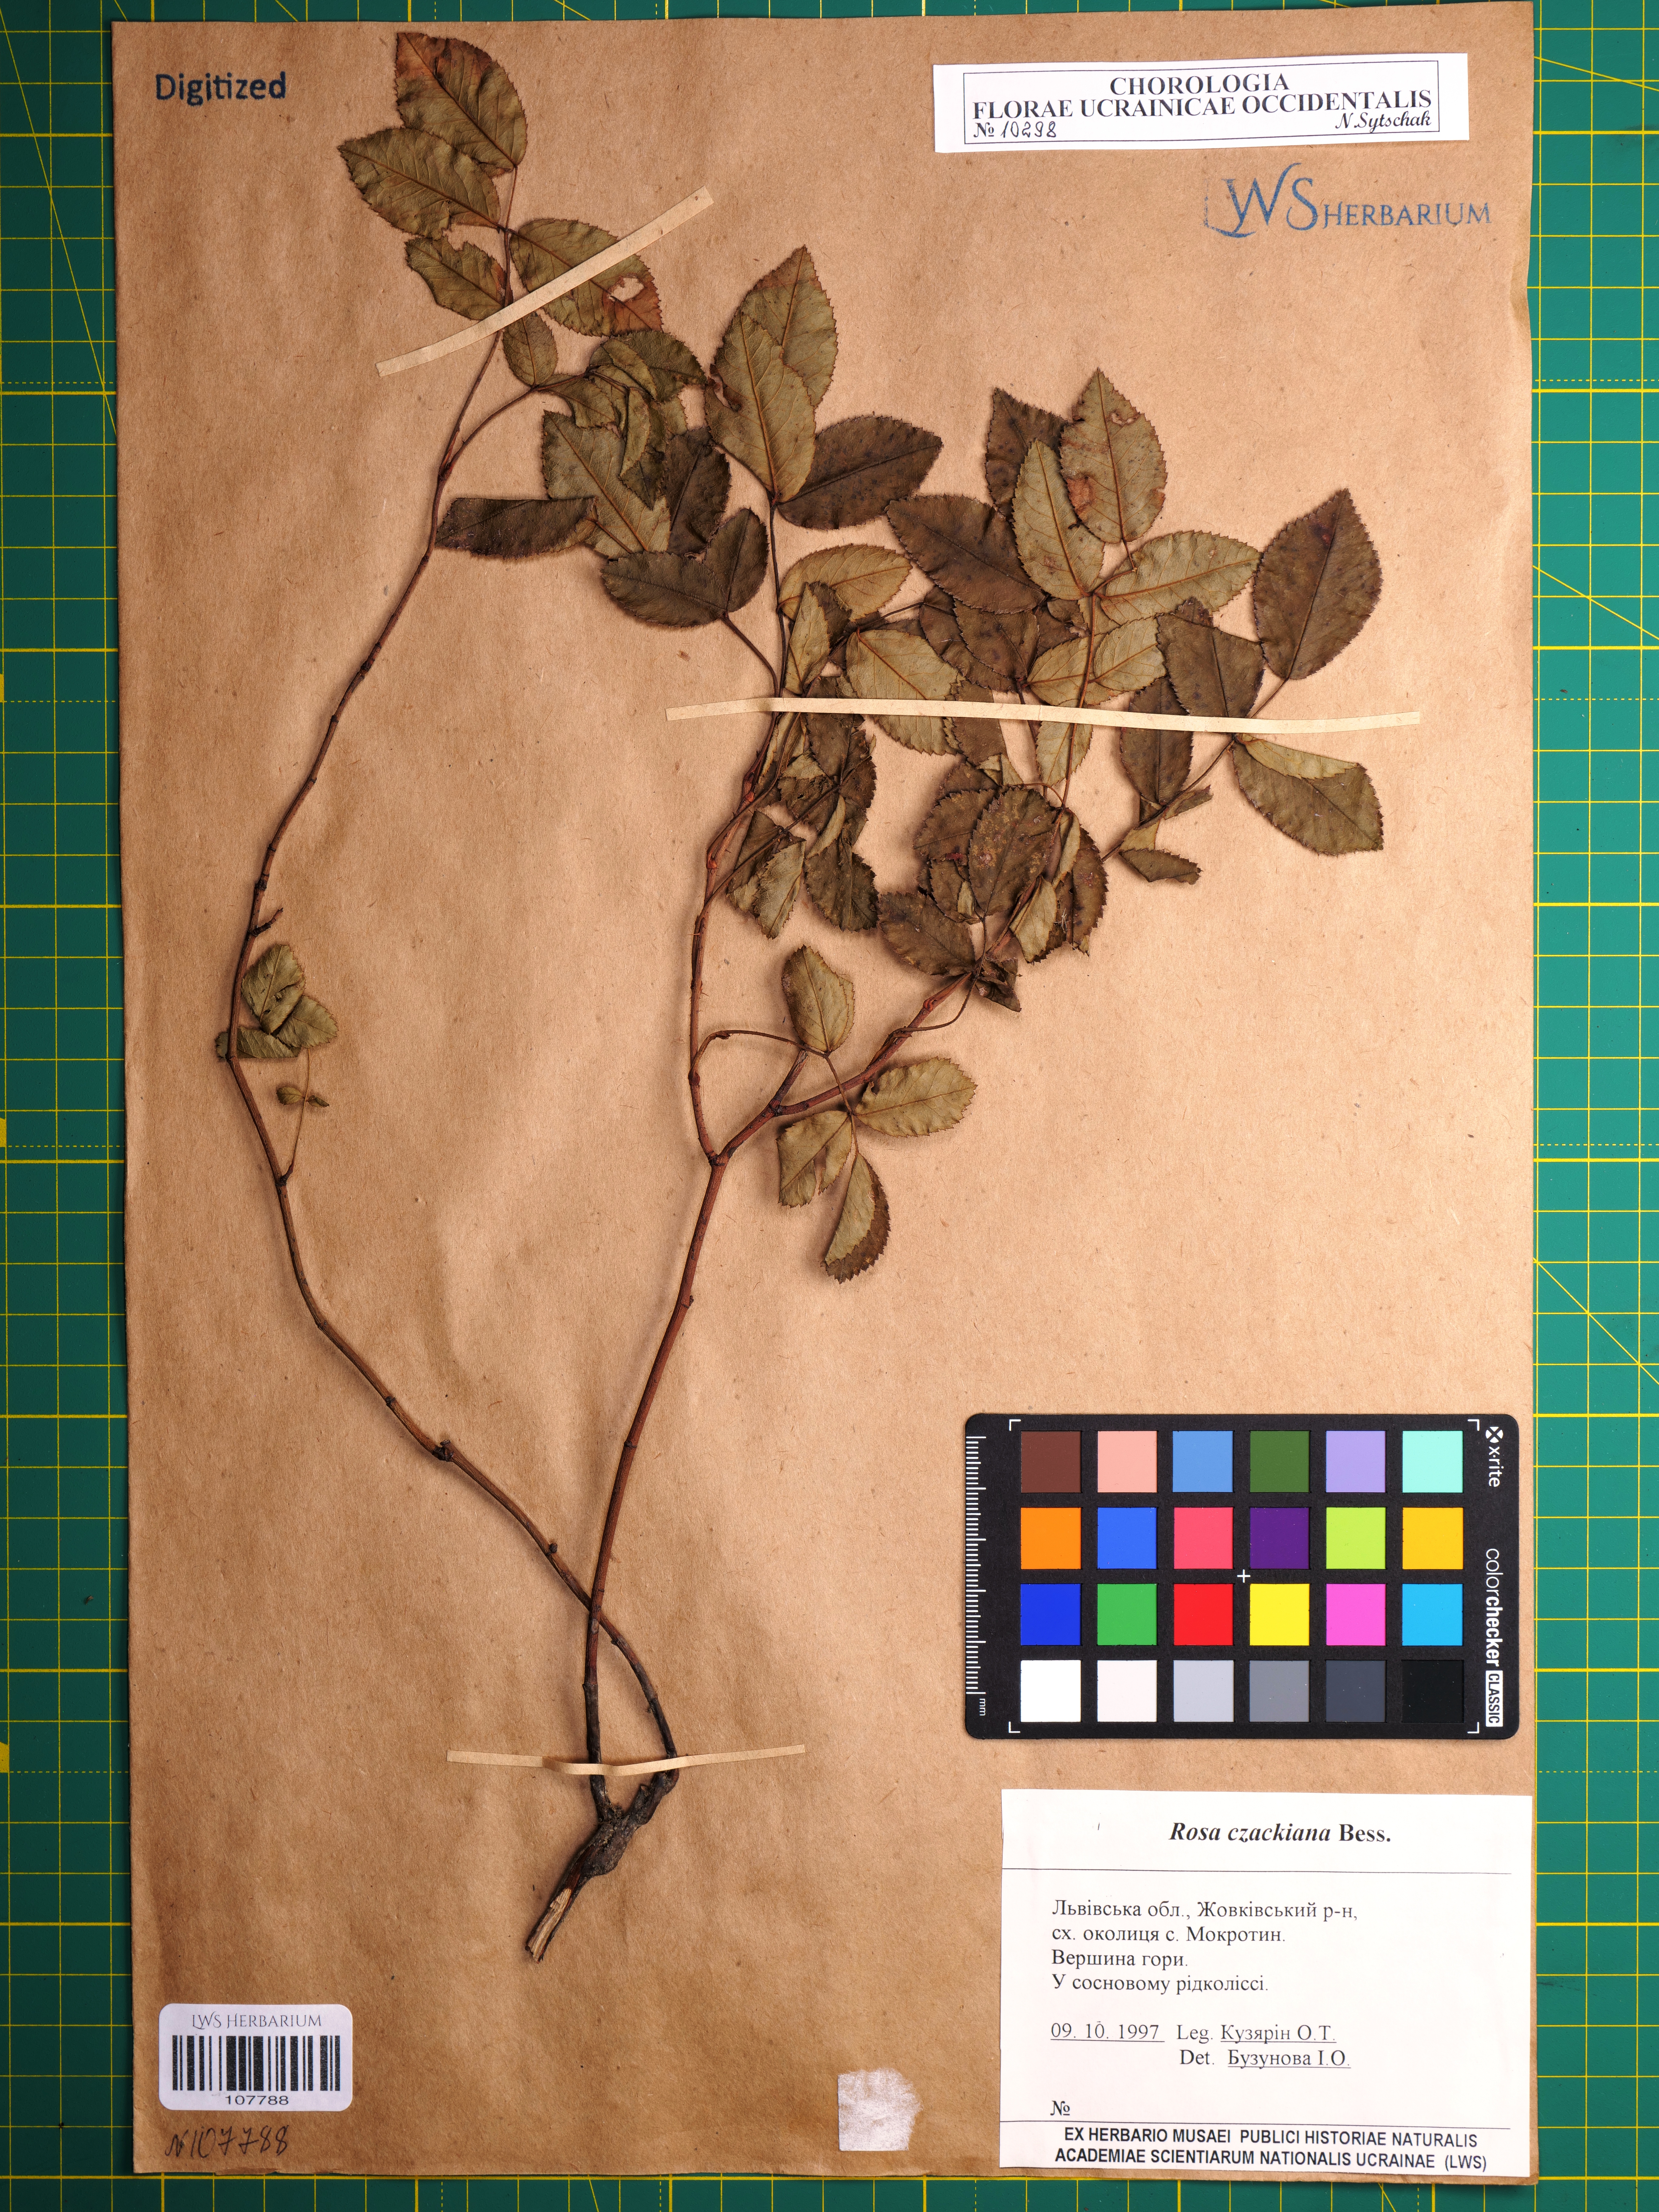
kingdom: Plantae
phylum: Tracheophyta
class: Magnoliopsida
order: Rosales
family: Rosaceae
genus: Rosa
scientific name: Rosa gallica
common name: French rose
